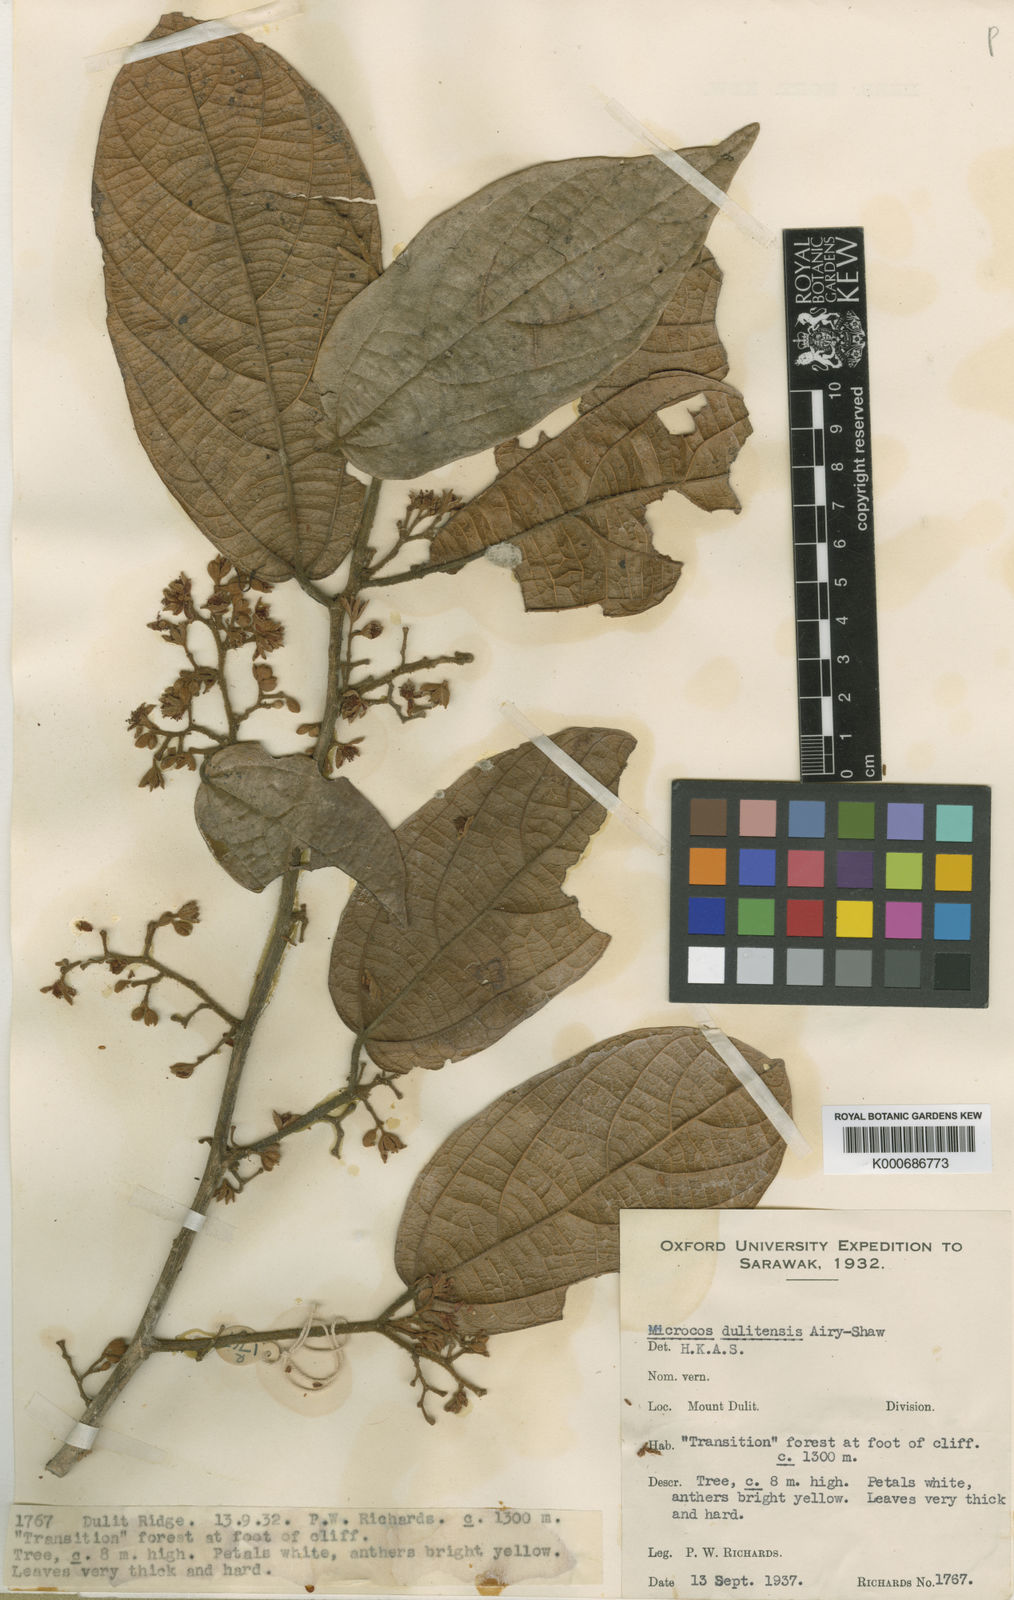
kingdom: Plantae
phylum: Tracheophyta
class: Magnoliopsida
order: Malvales
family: Malvaceae
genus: Microcos
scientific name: Microcos dulitensis
